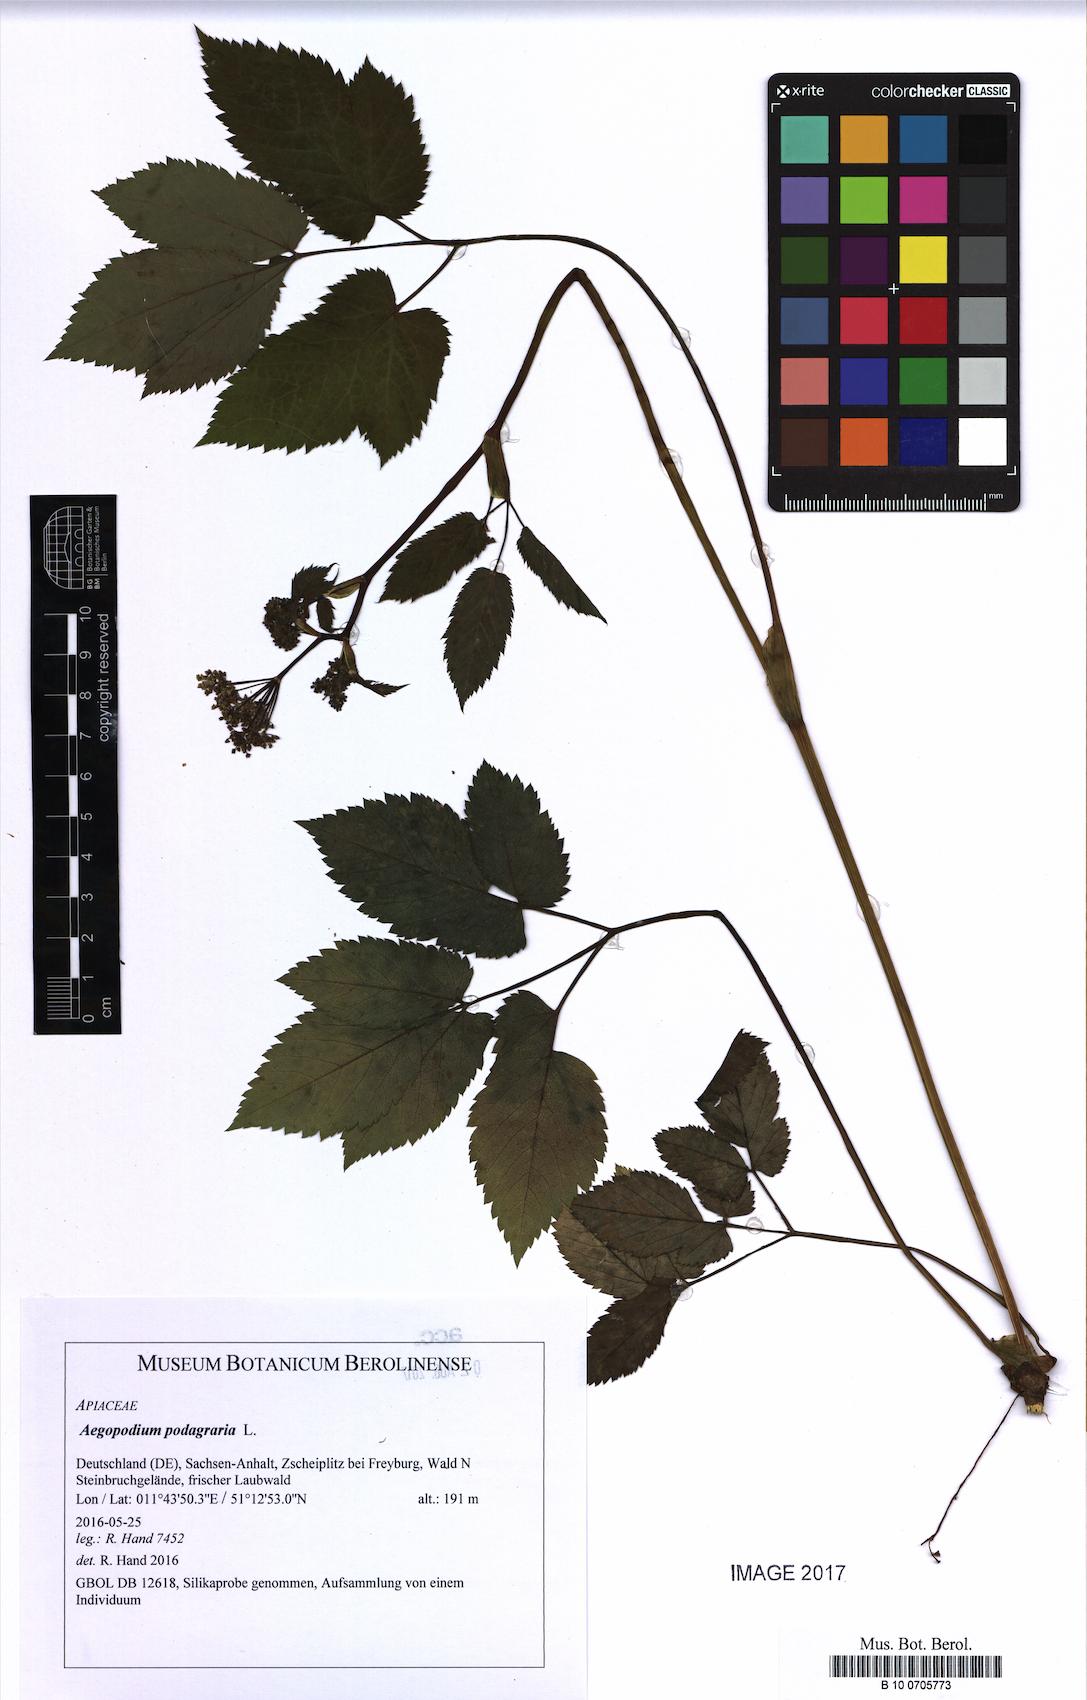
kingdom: Plantae
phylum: Tracheophyta
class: Magnoliopsida
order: Apiales
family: Apiaceae
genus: Aegopodium
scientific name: Aegopodium podagraria
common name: Ground-elder
